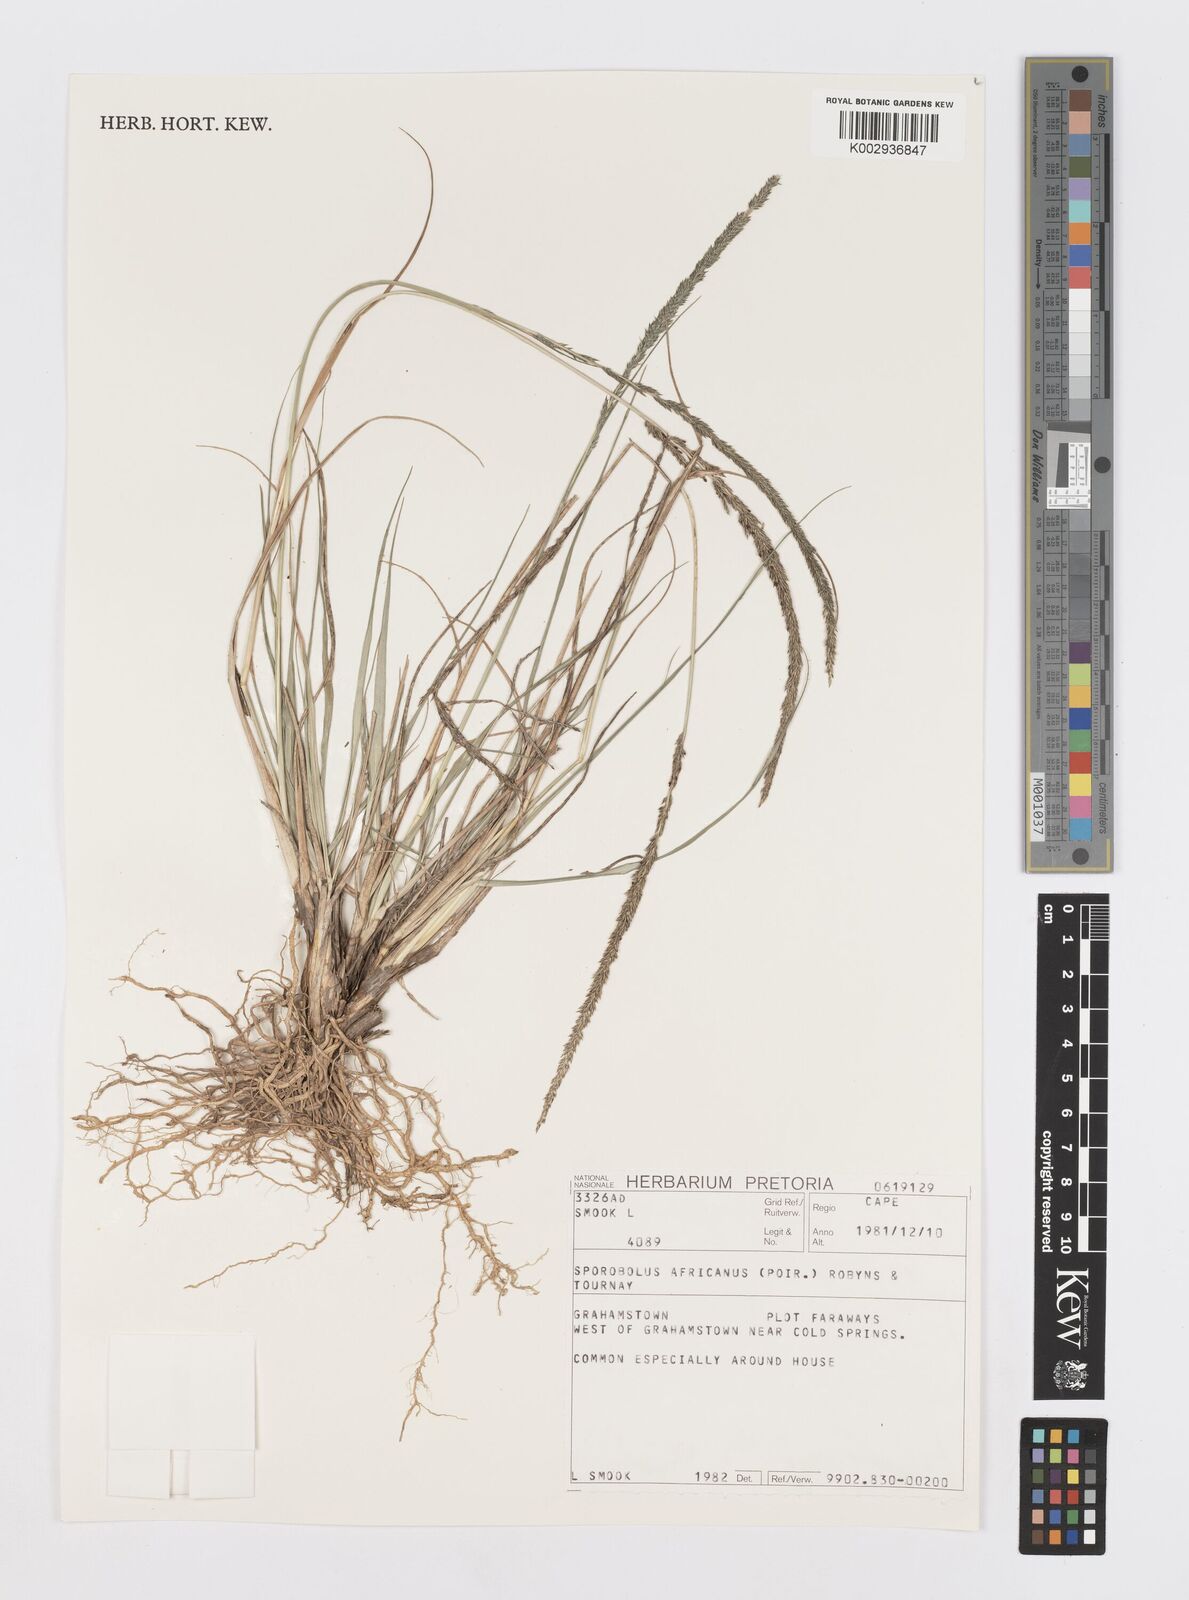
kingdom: Plantae
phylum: Tracheophyta
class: Liliopsida
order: Poales
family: Poaceae
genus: Sporobolus
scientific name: Sporobolus africanus
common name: African dropseed
